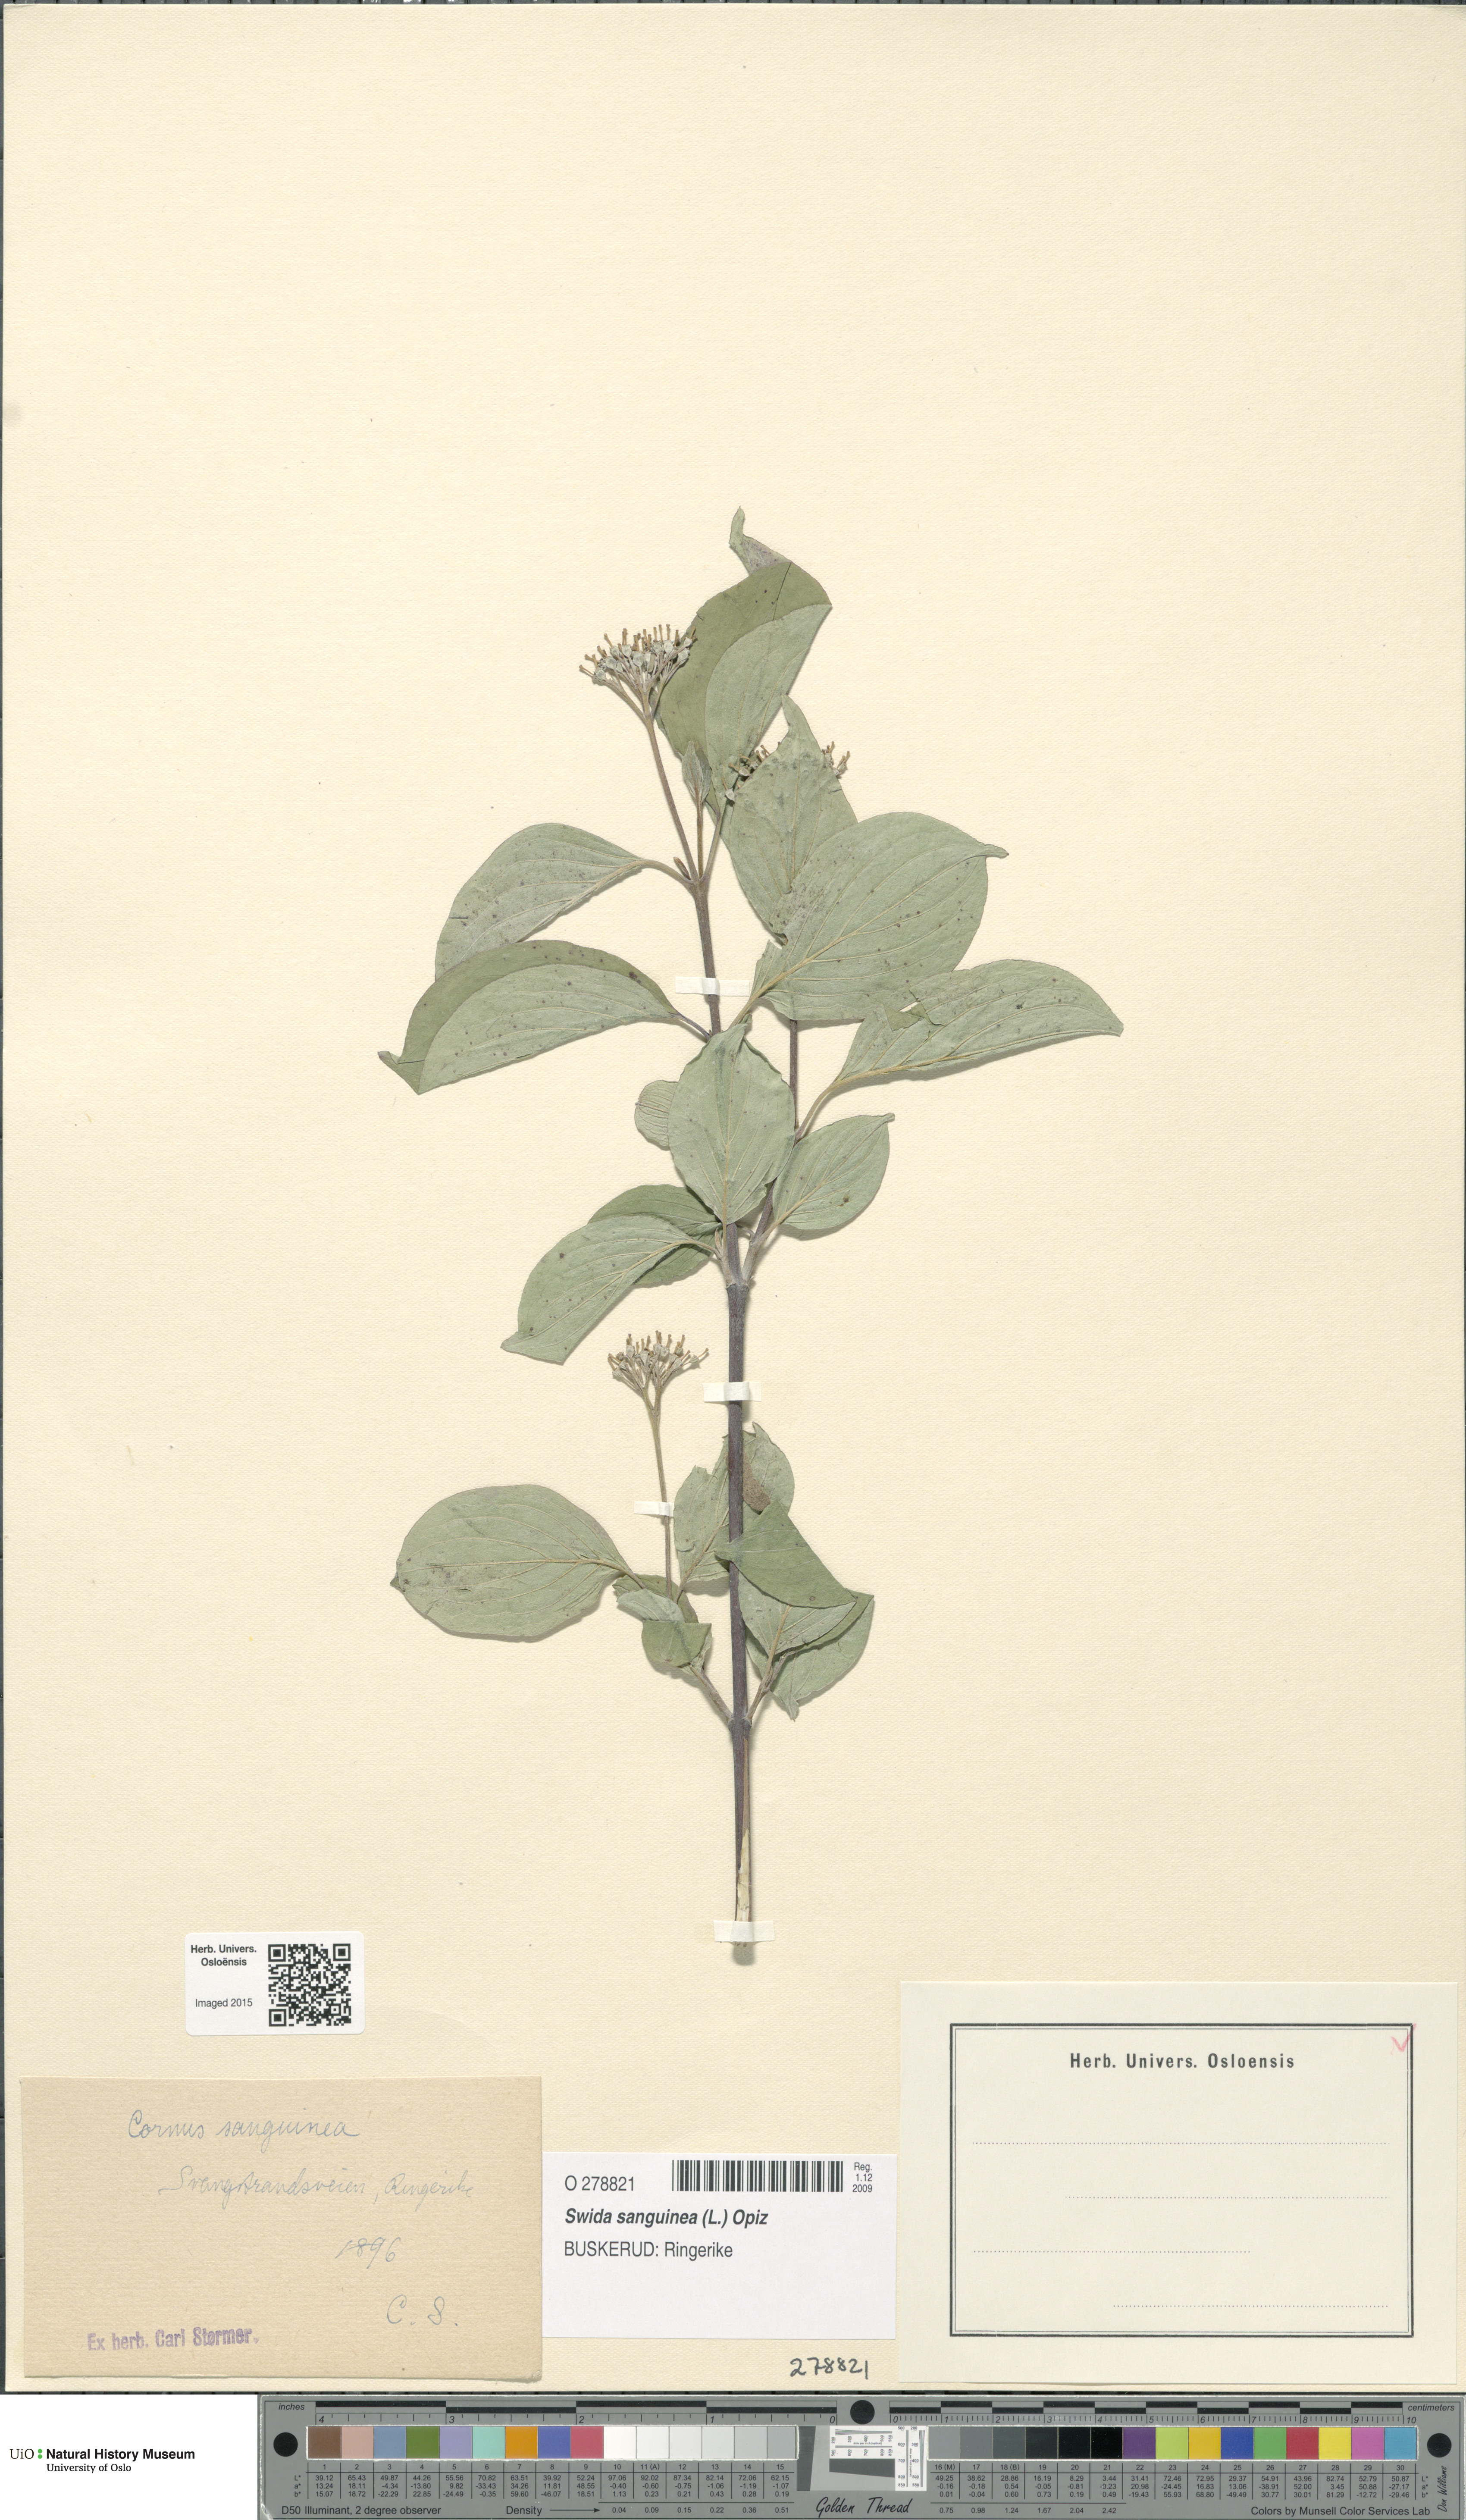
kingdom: Plantae
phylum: Tracheophyta
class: Magnoliopsida
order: Cornales
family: Cornaceae
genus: Cornus
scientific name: Cornus sanguinea
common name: Dogwood
